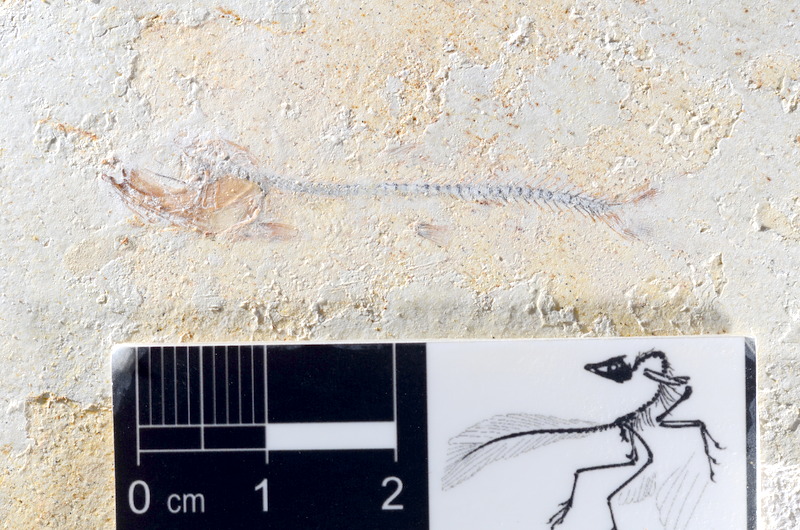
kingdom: Animalia
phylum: Chordata
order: Salmoniformes
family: Orthogonikleithridae
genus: Orthogonikleithrus
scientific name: Orthogonikleithrus hoelli
